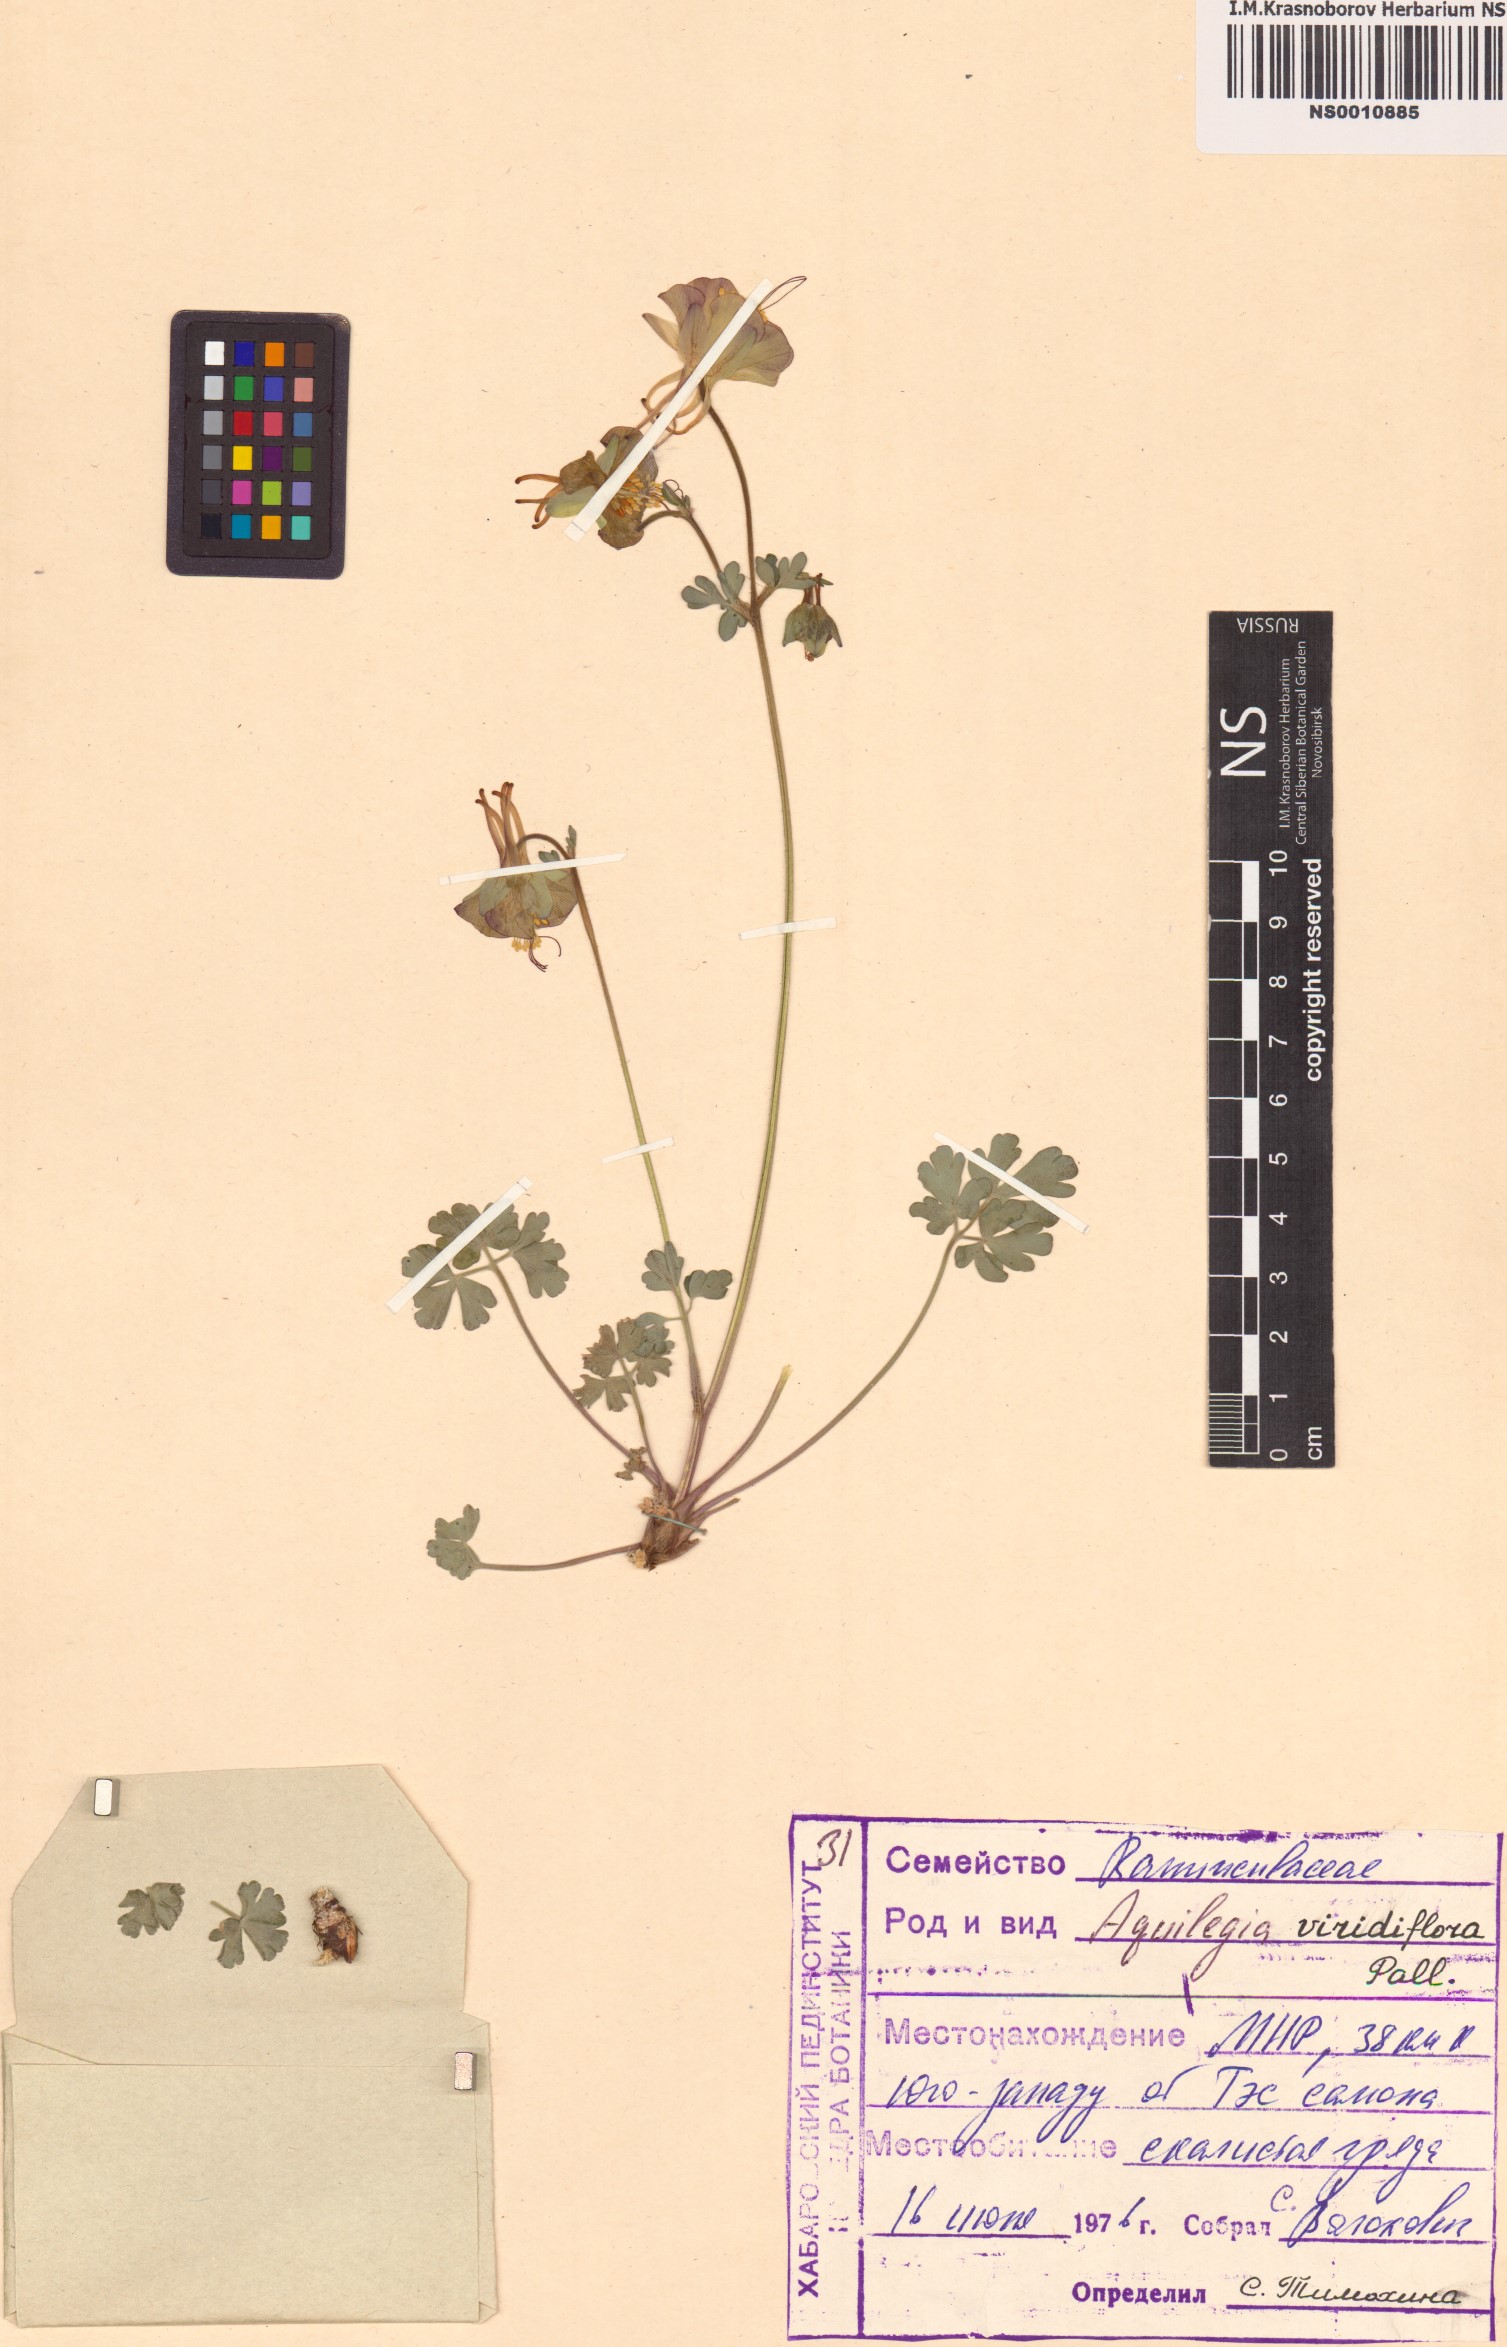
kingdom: Plantae
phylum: Tracheophyta
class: Magnoliopsida
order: Ranunculales
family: Ranunculaceae
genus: Aquilegia
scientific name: Aquilegia viridiflora
